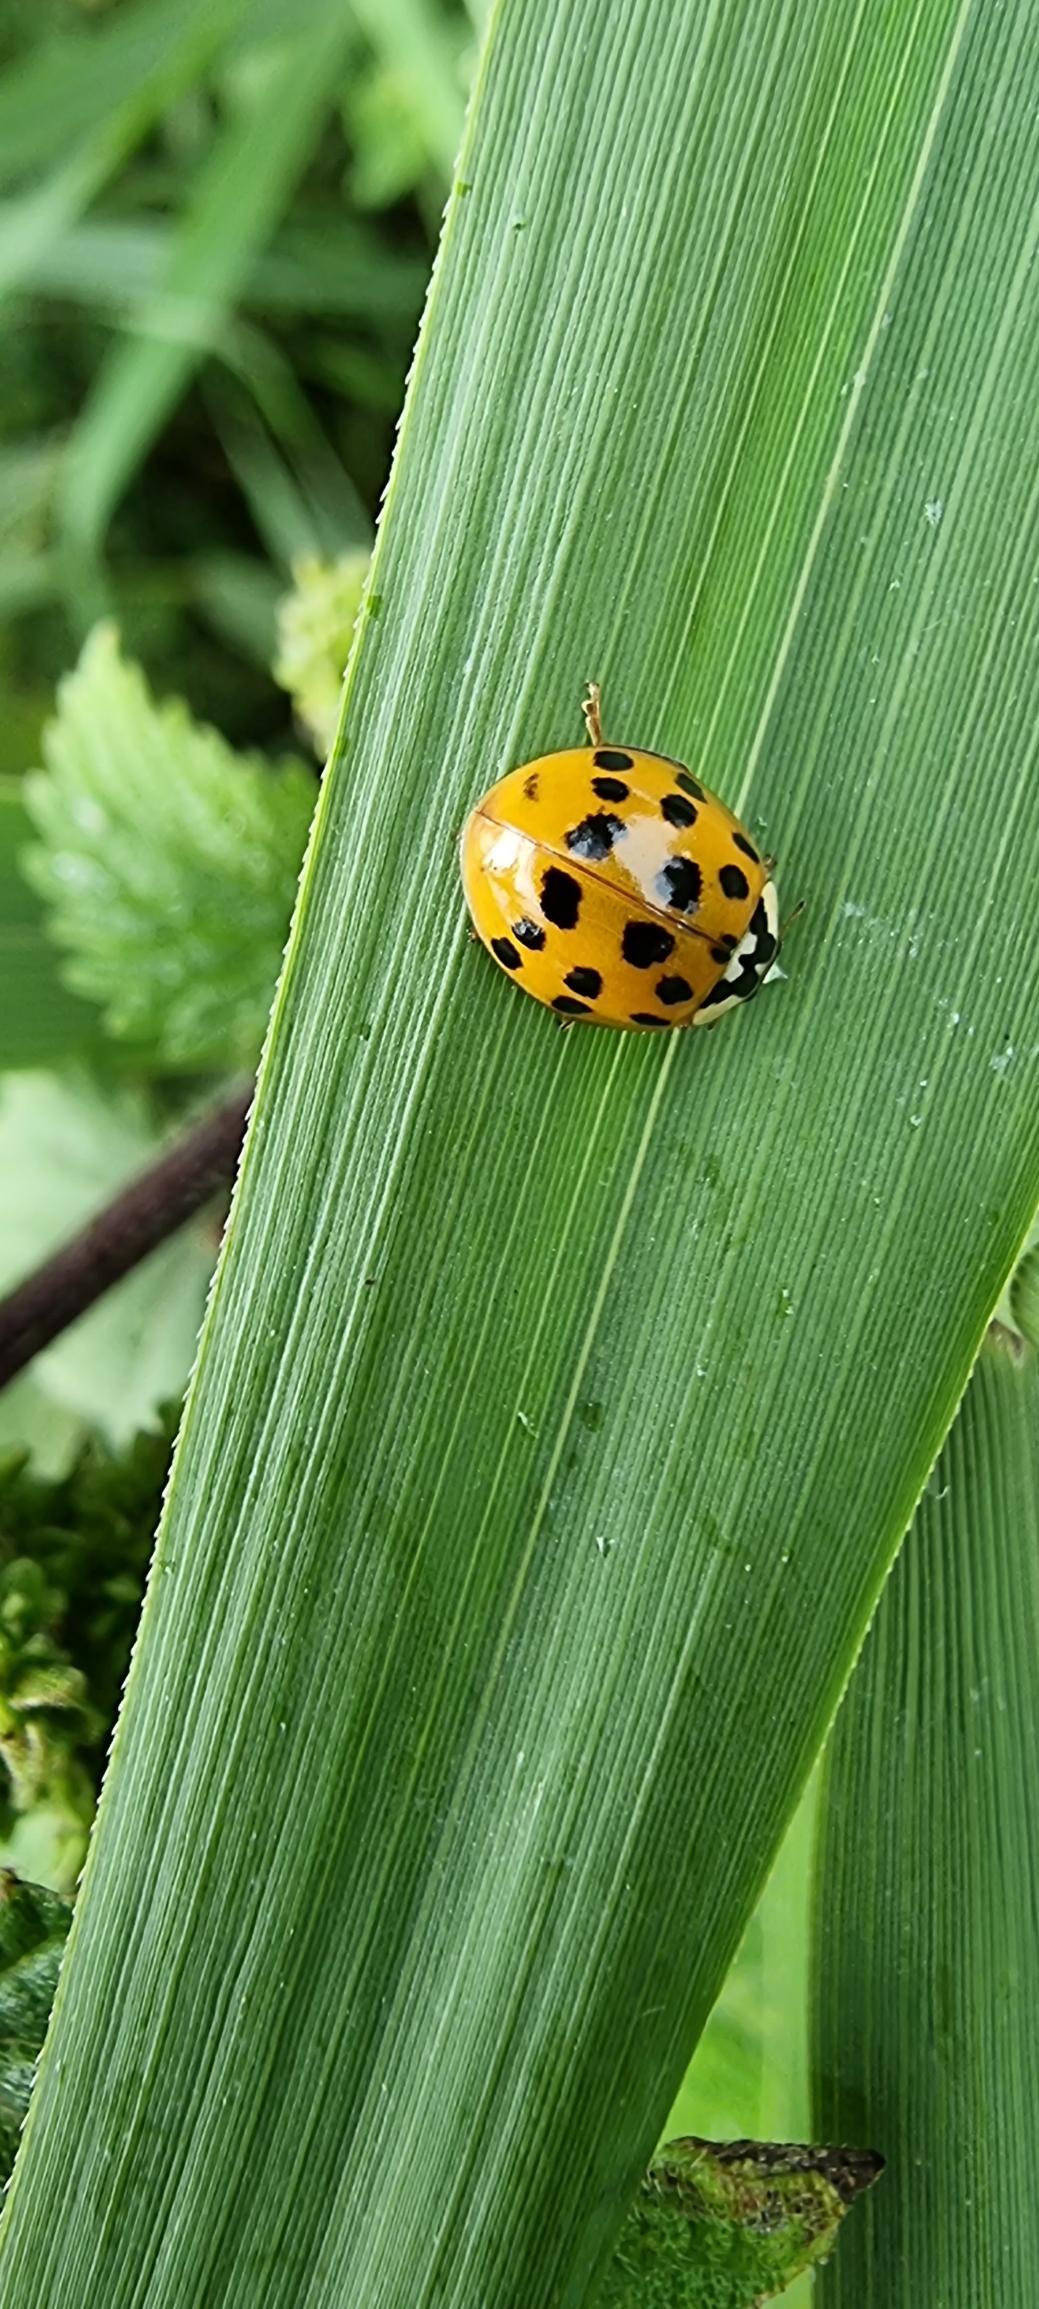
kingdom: Animalia
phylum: Arthropoda
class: Insecta
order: Coleoptera
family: Coccinellidae
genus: Harmonia
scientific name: Harmonia axyridis
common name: Harlekinmariehøne
